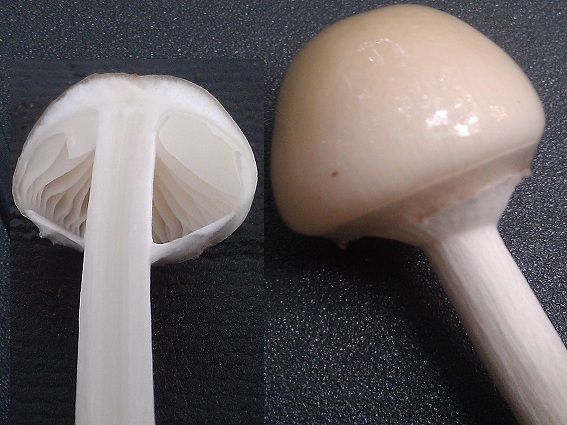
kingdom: Fungi
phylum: Basidiomycota
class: Agaricomycetes
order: Agaricales
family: Physalacriaceae
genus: Mucidula
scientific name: Mucidula mucida
